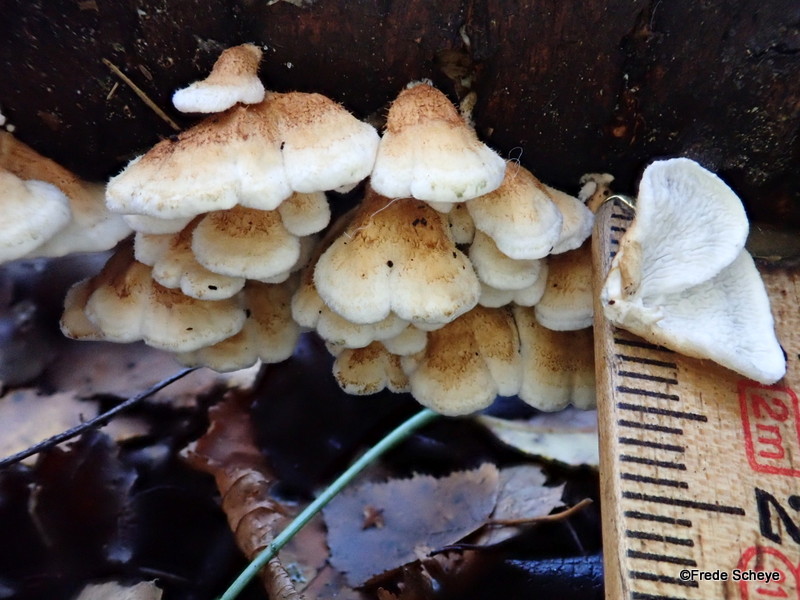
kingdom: Fungi
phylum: Basidiomycota
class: Agaricomycetes
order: Amylocorticiales
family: Amylocorticiaceae
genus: Plicaturopsis
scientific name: Plicaturopsis crispa
